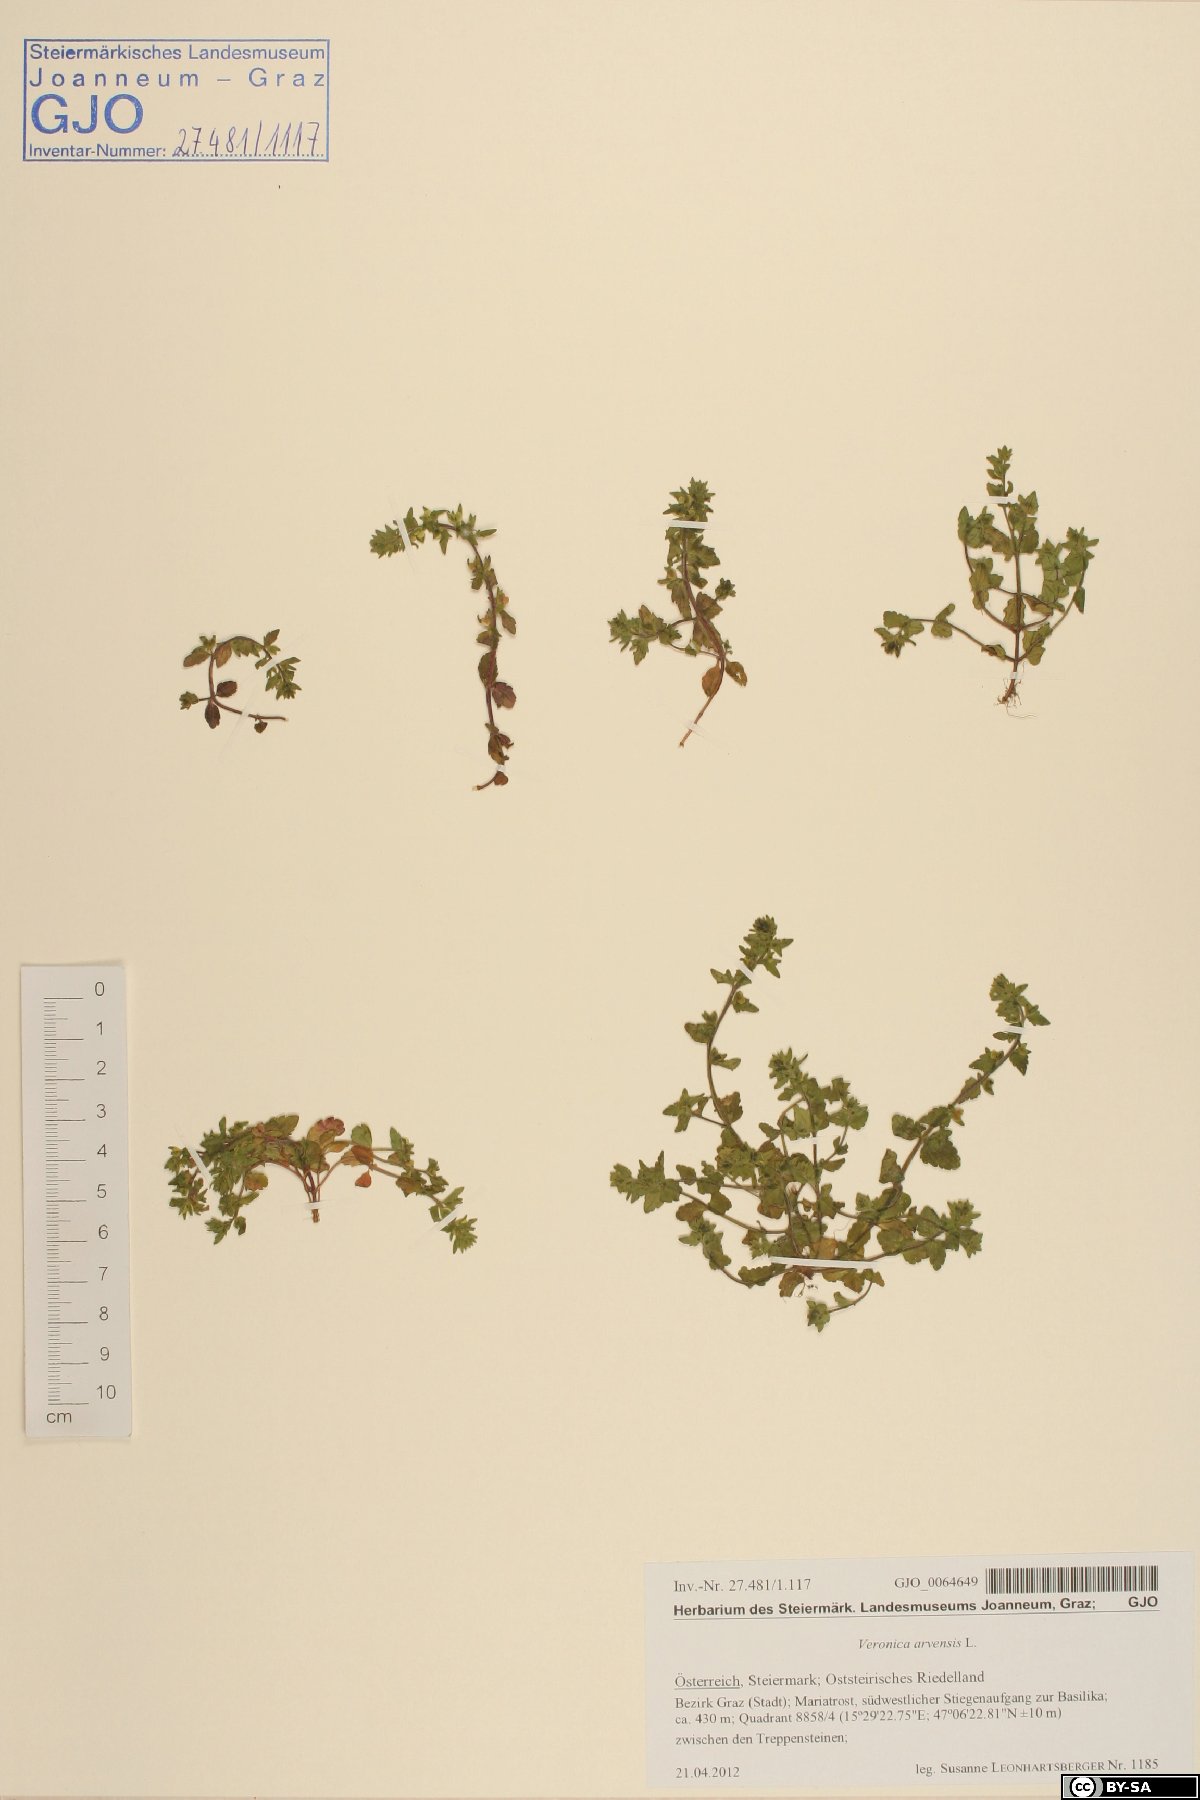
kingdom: Plantae
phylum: Tracheophyta
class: Magnoliopsida
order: Lamiales
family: Plantaginaceae
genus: Veronica
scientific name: Veronica arvensis
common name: Corn speedwell
